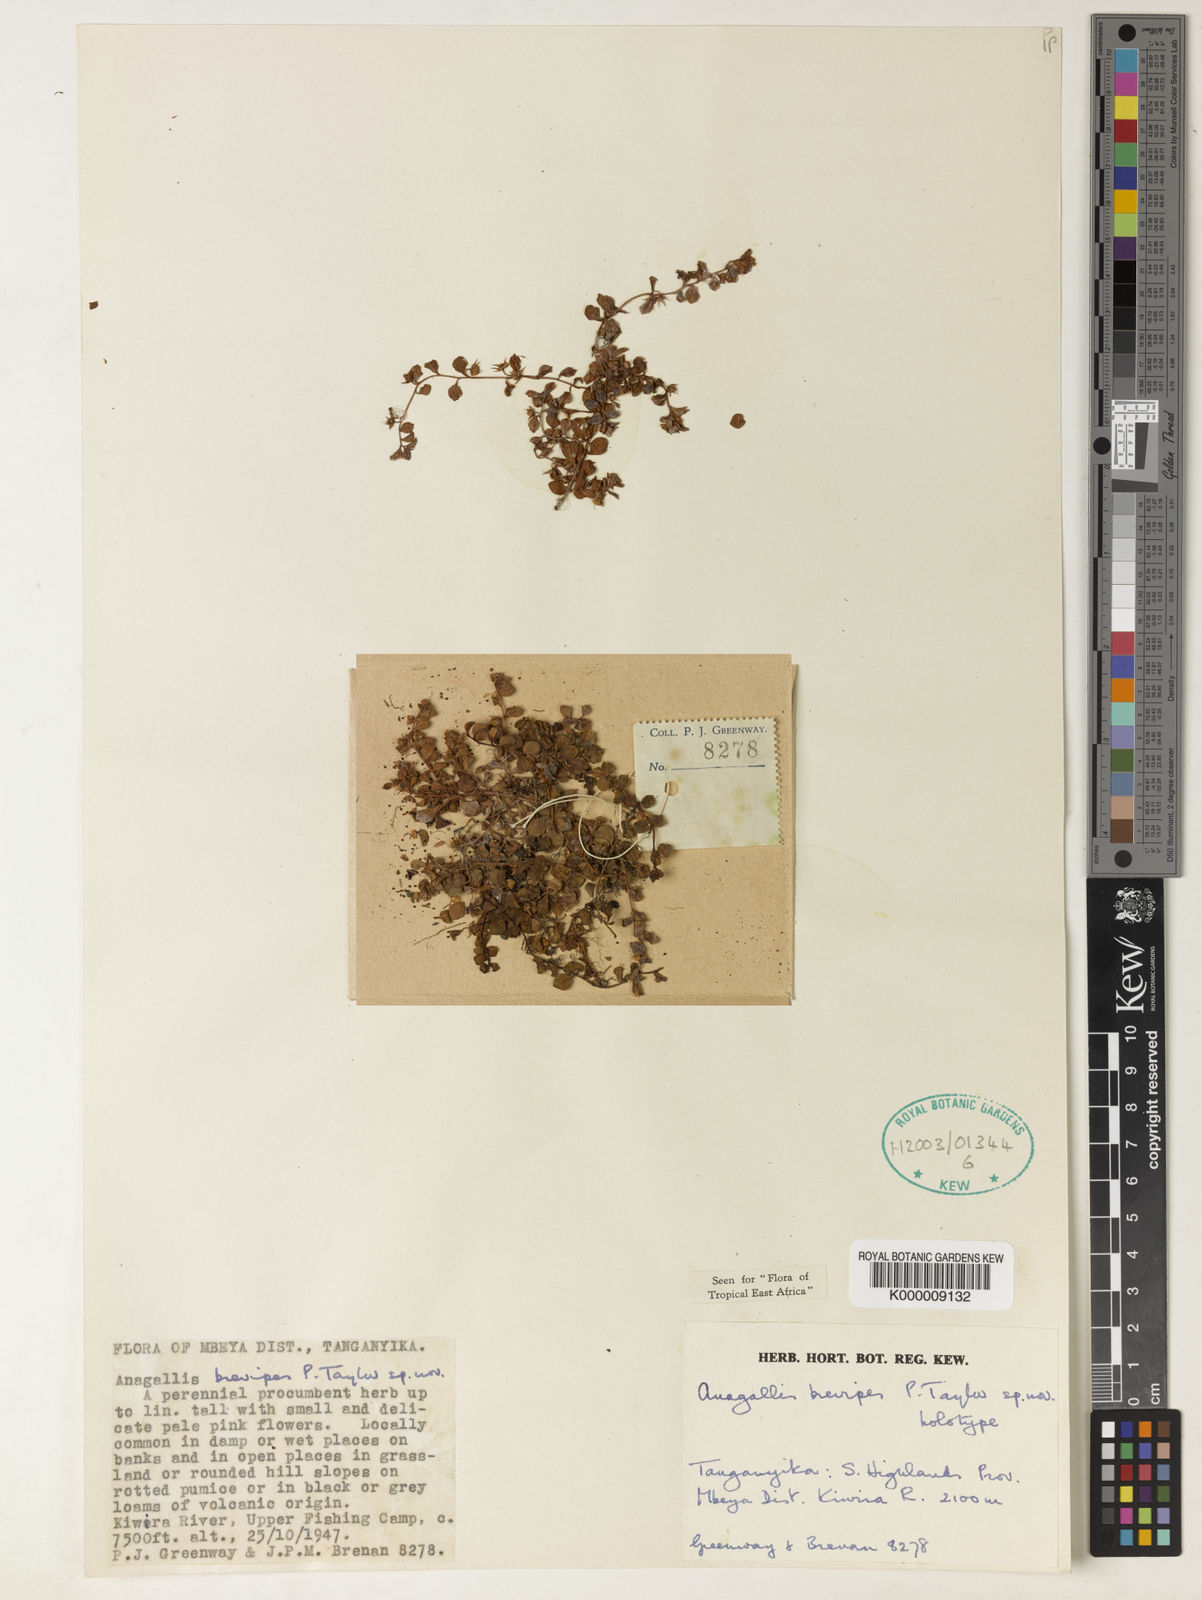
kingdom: Plantae
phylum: Tracheophyta
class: Magnoliopsida
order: Ericales
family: Primulaceae
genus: Lysimachia
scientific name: Lysimachia brevipes
